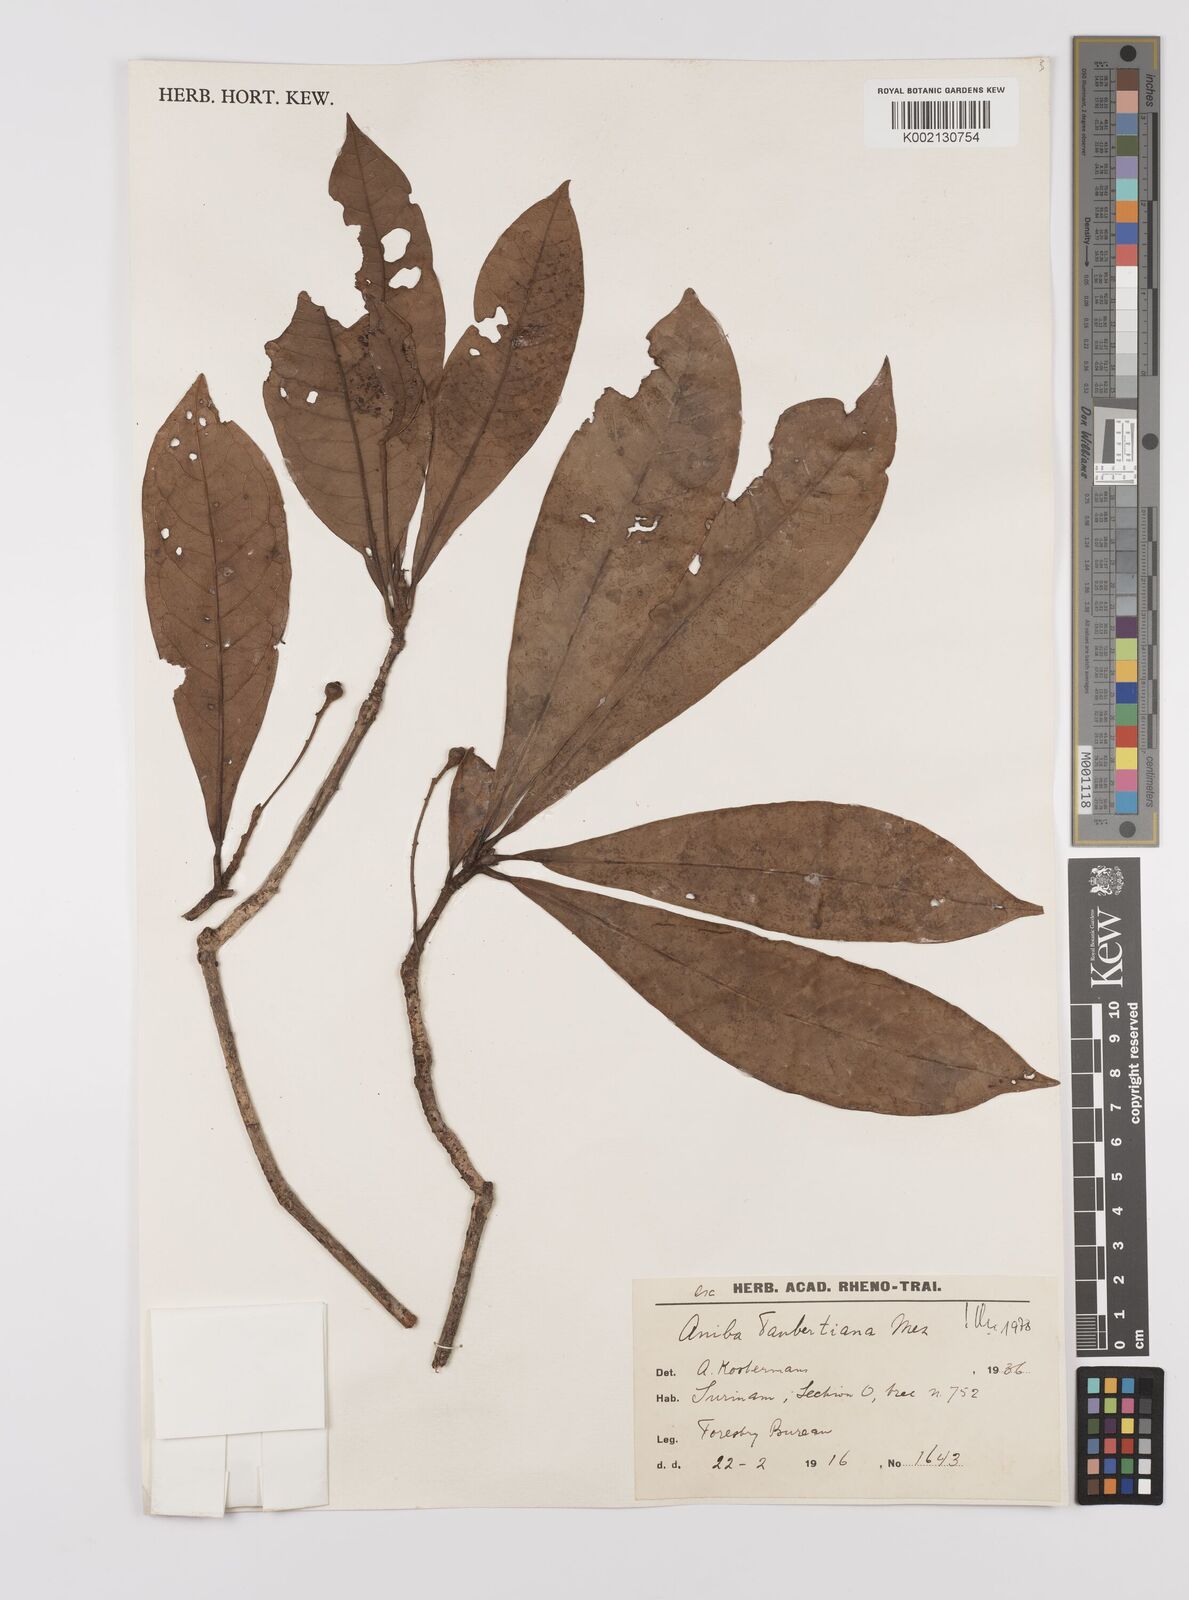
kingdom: Plantae
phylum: Tracheophyta
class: Magnoliopsida
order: Laurales
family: Lauraceae
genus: Aniba
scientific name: Aniba taubertiana
